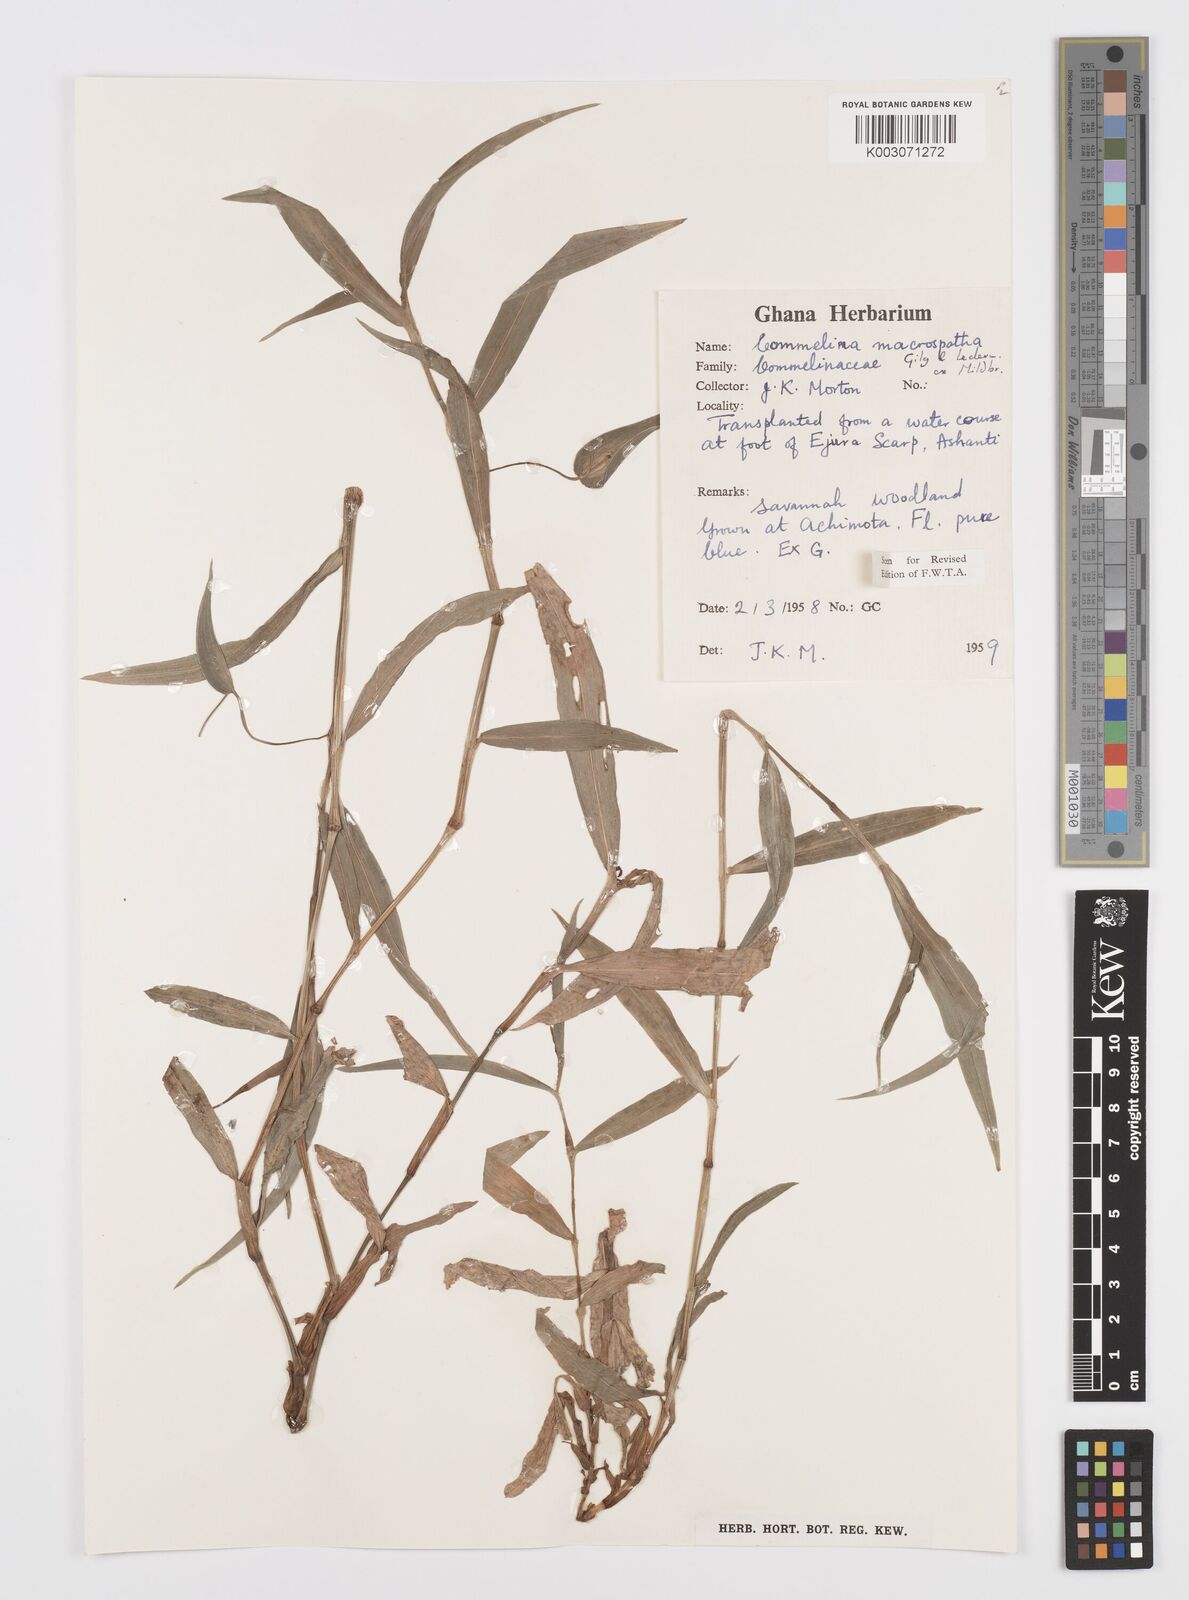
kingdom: Plantae
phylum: Tracheophyta
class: Liliopsida
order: Commelinales
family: Commelinaceae
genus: Commelina
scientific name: Commelina macrospatha
